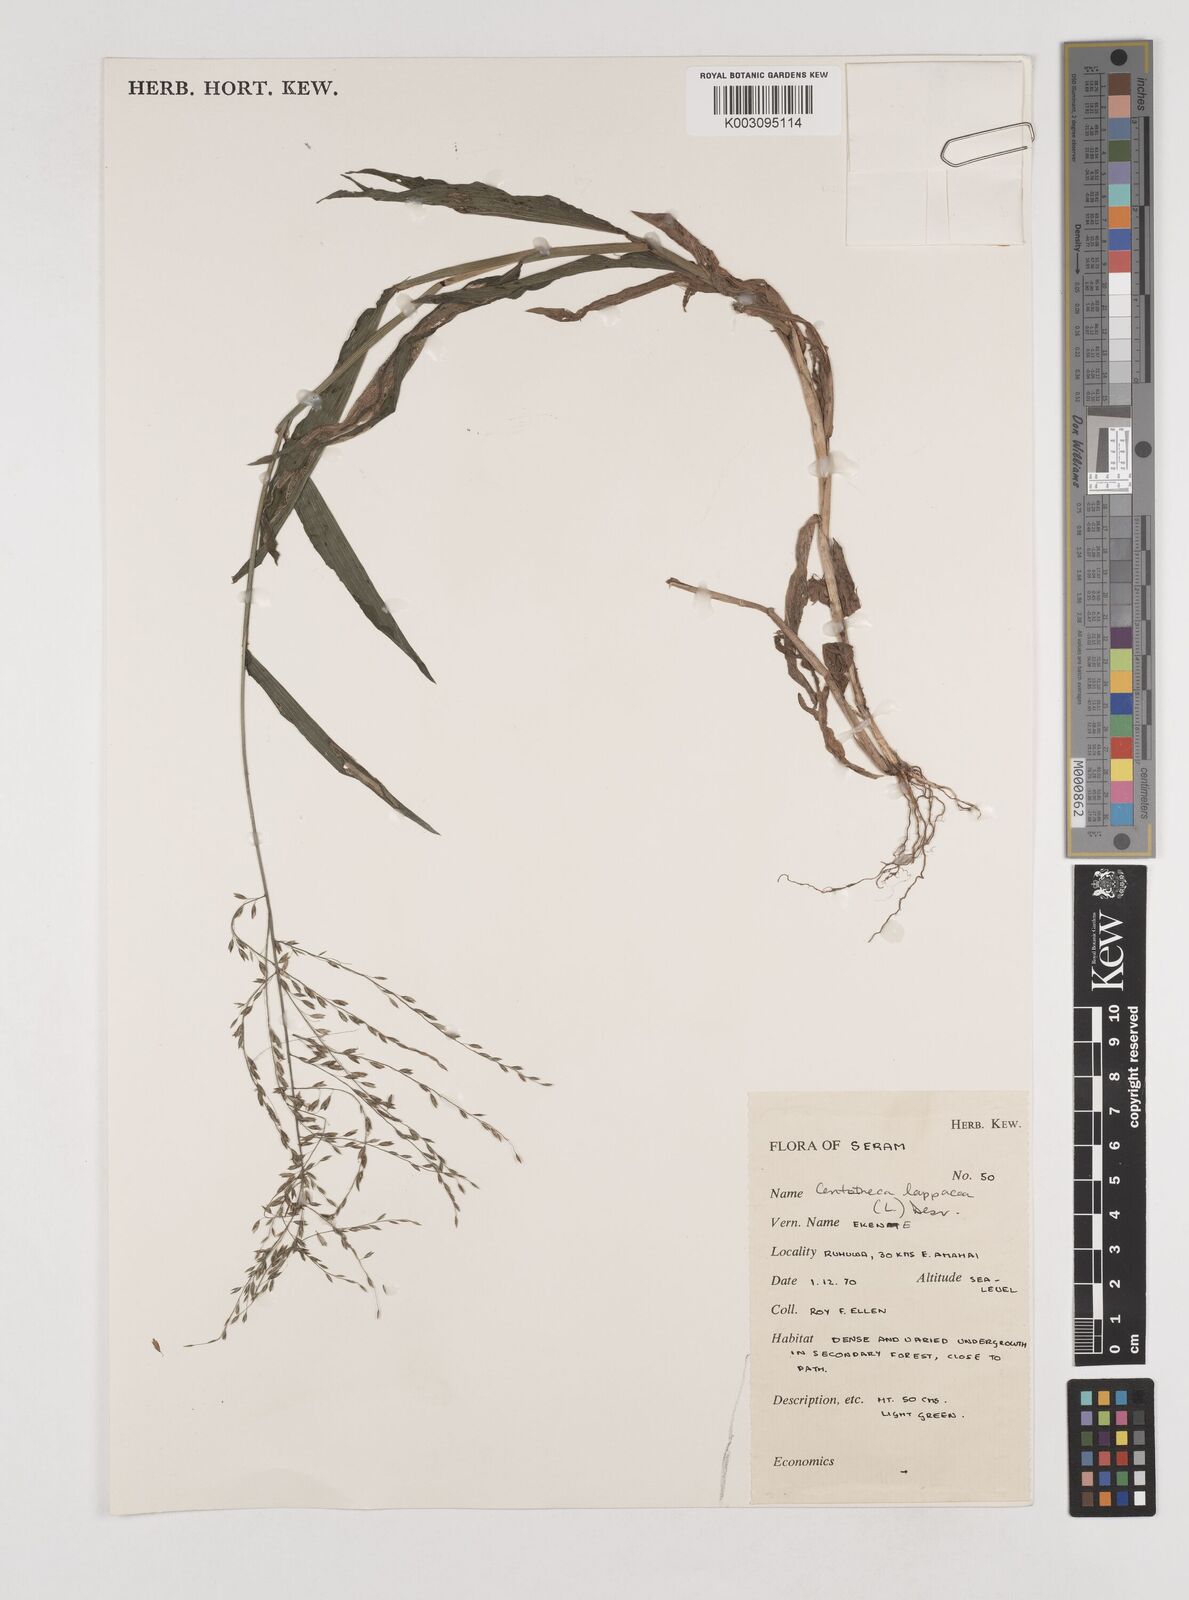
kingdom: Plantae
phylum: Tracheophyta
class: Liliopsida
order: Poales
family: Poaceae
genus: Centotheca
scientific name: Centotheca lappacea
